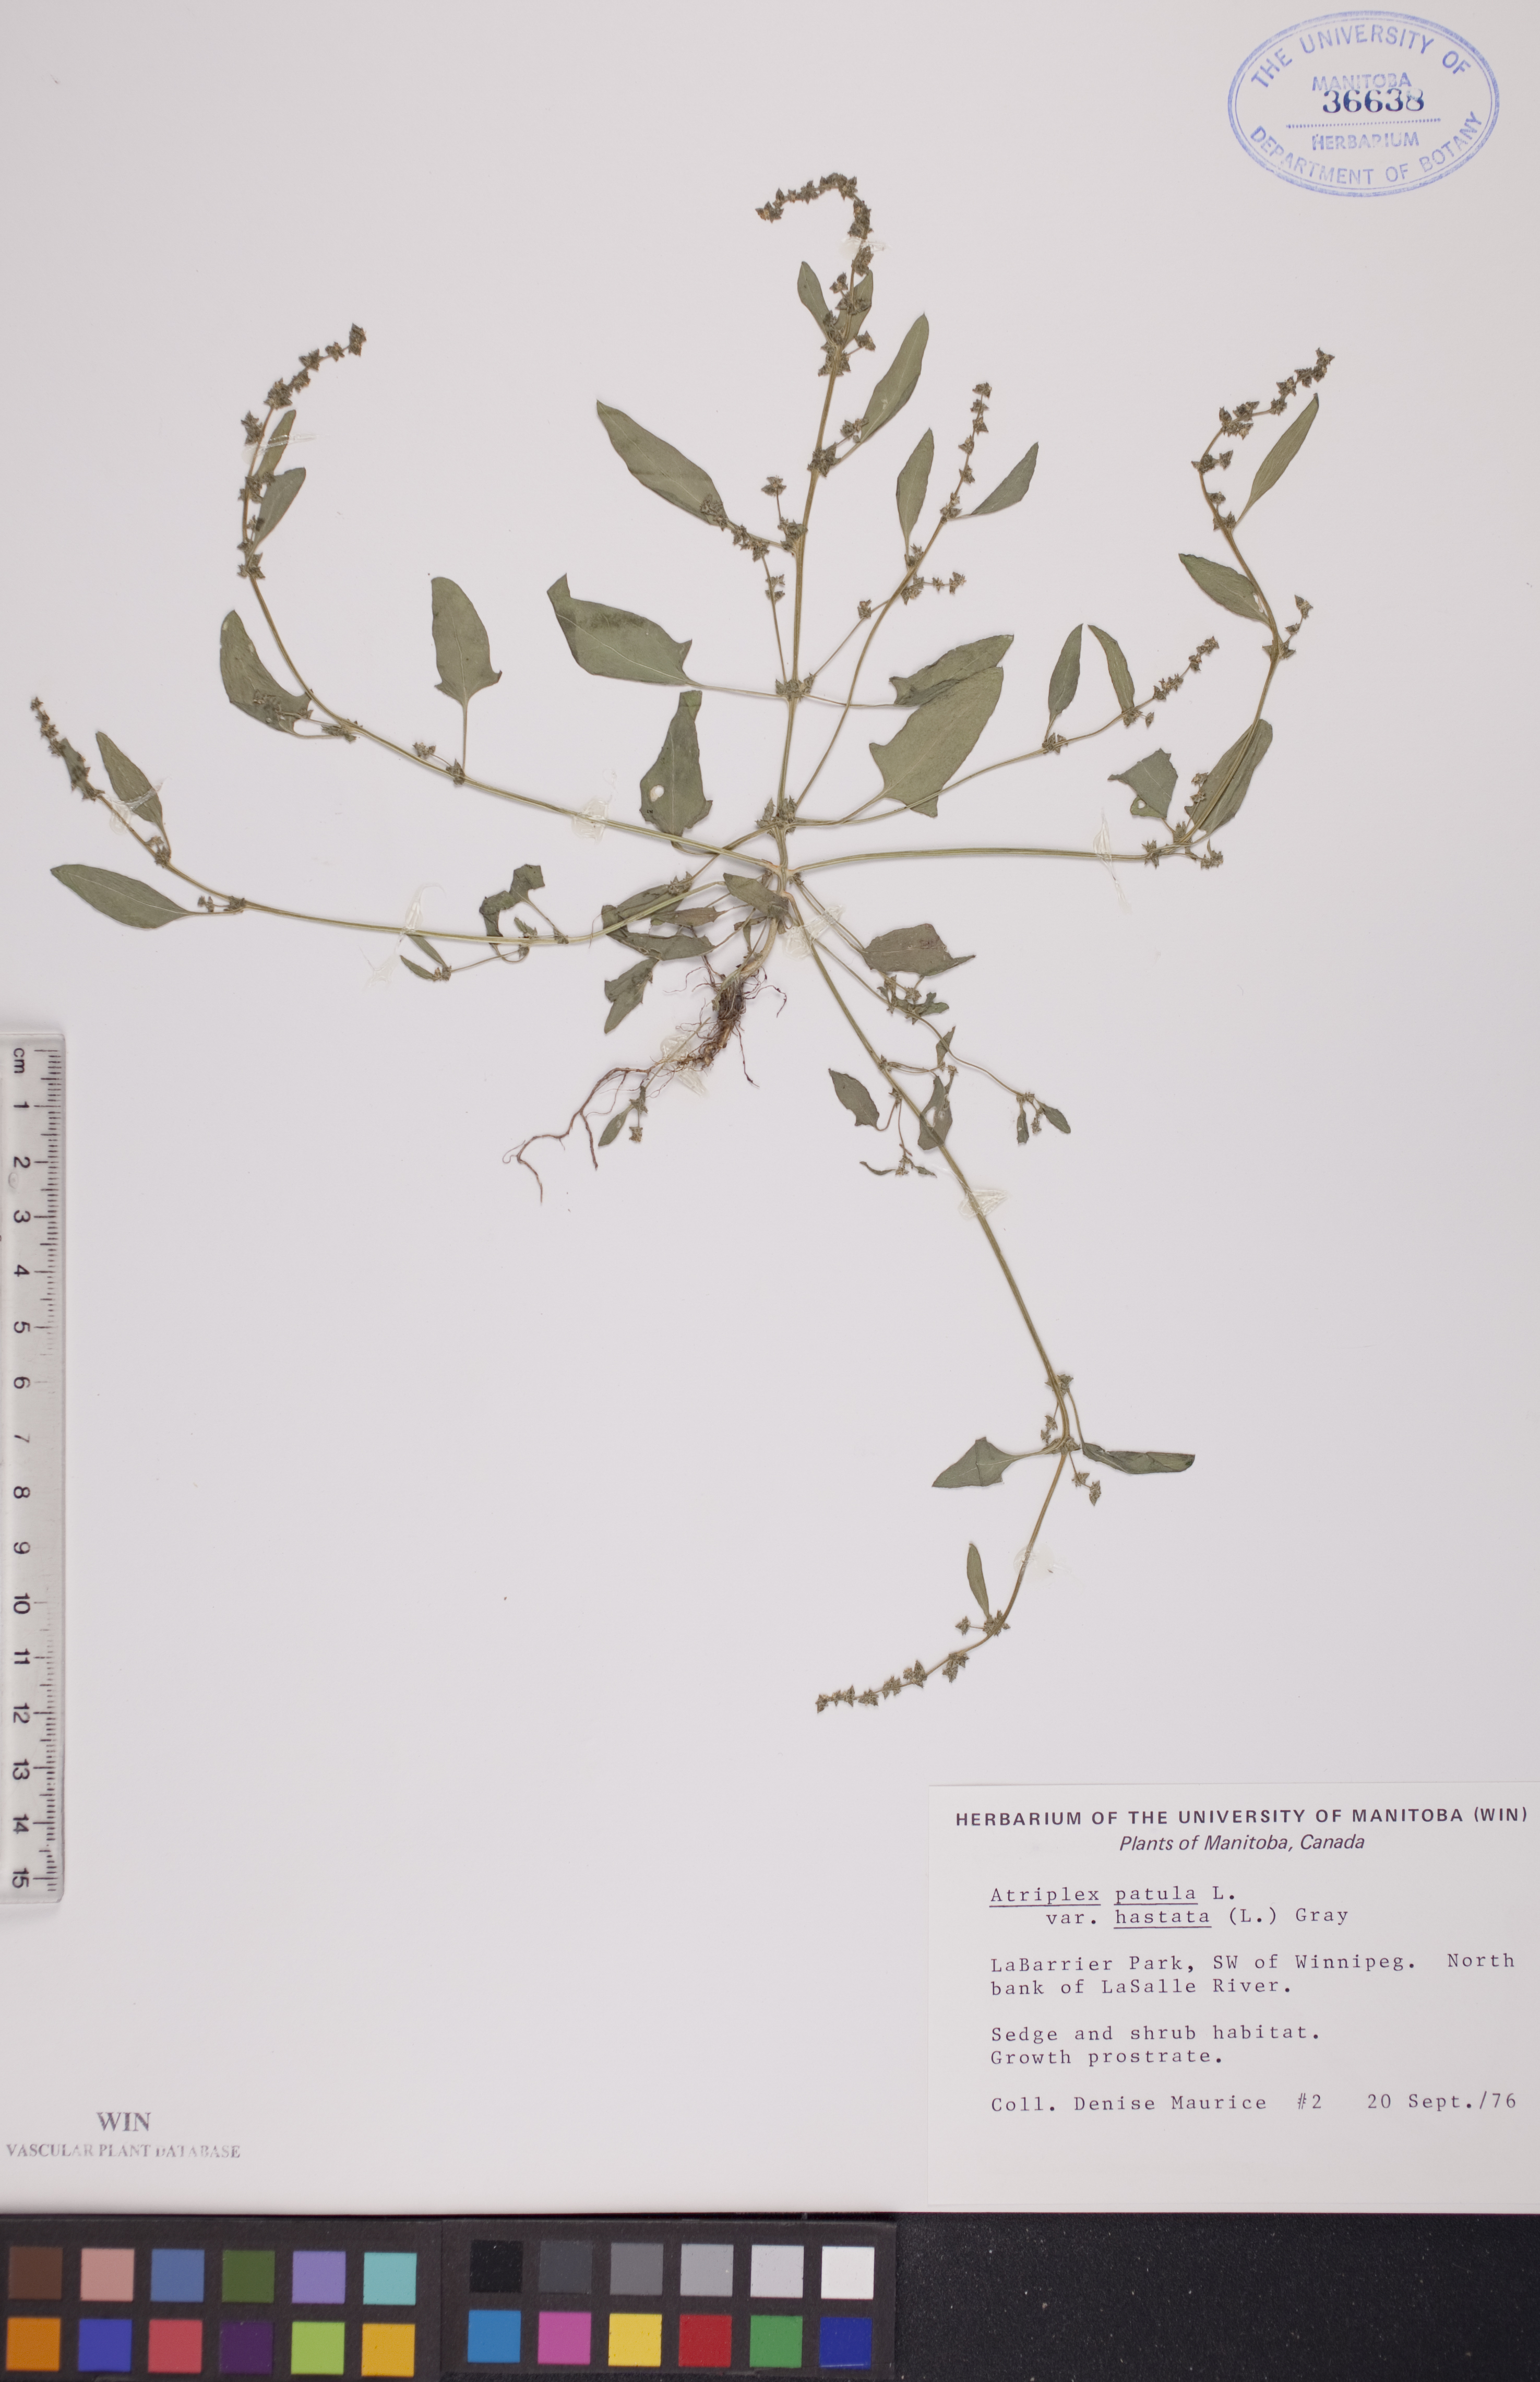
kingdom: Plantae
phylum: Tracheophyta
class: Magnoliopsida
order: Caryophyllales
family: Amaranthaceae
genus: Atriplex
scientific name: Atriplex
